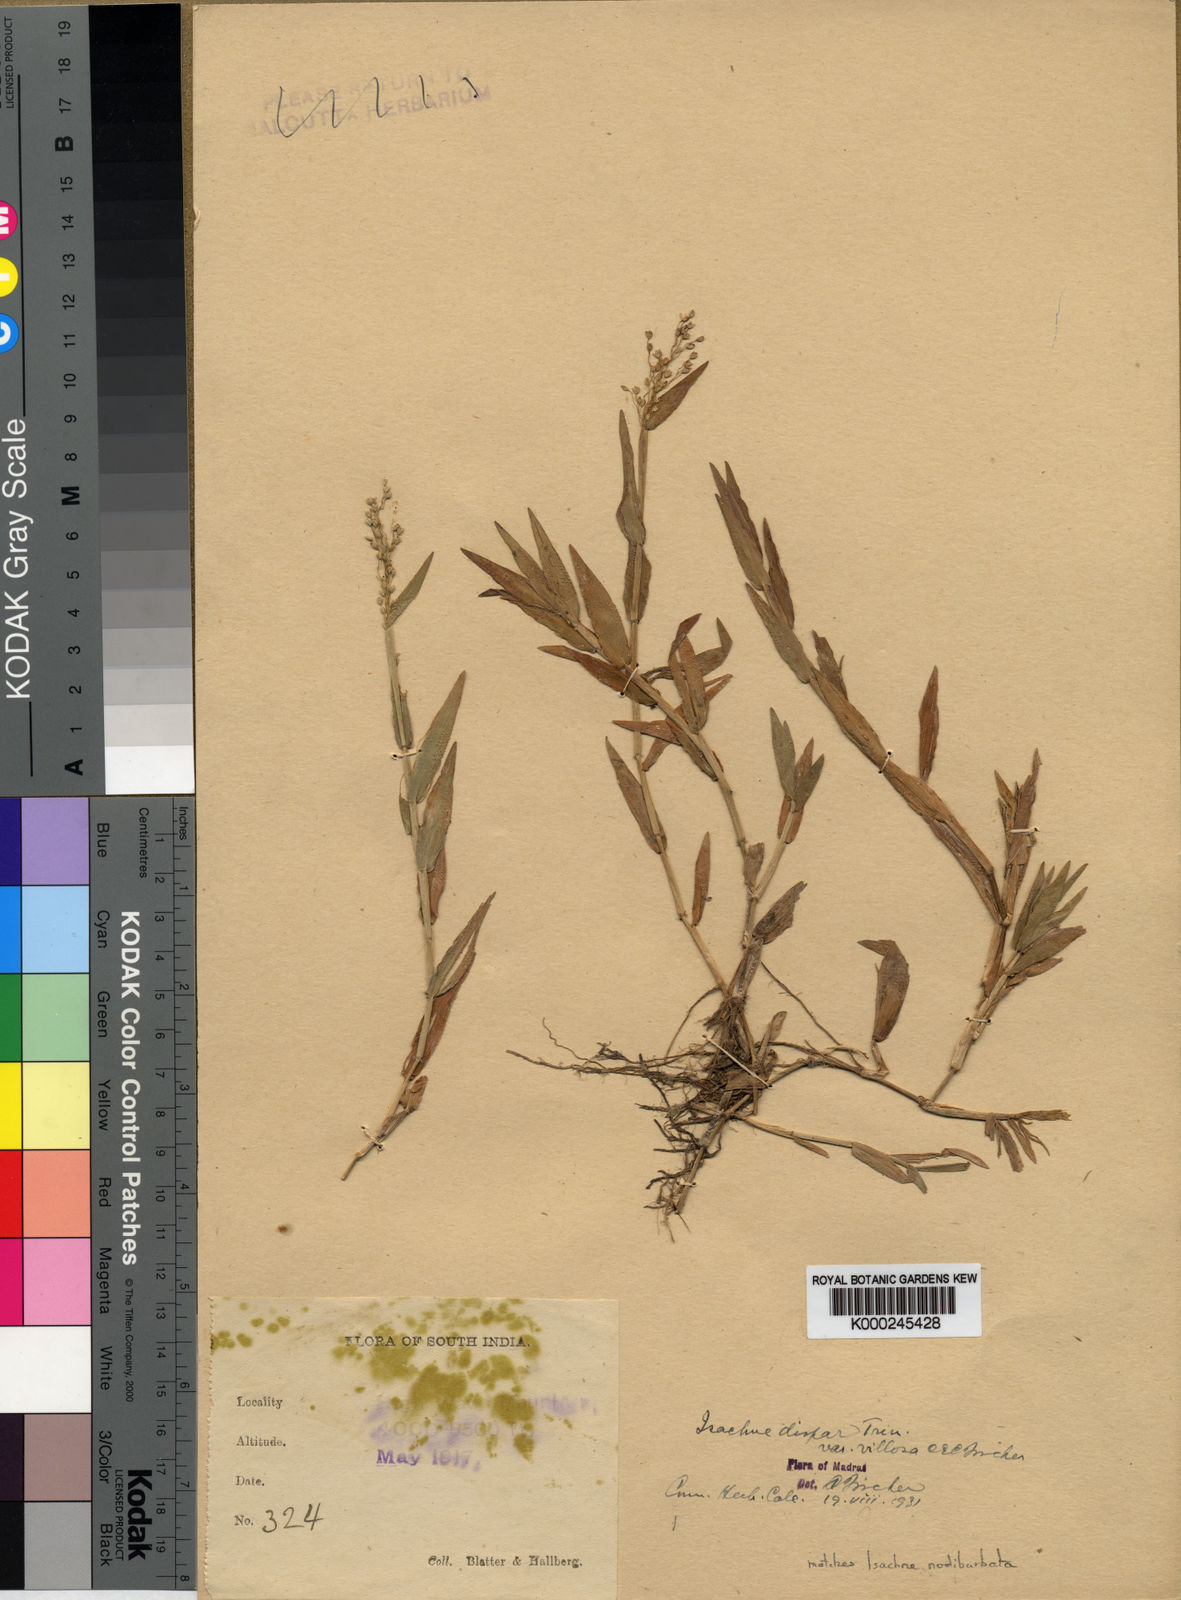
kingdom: Plantae
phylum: Tracheophyta
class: Liliopsida
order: Poales
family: Poaceae
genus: Isachne
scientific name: Isachne globosa
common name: Swamp millet
